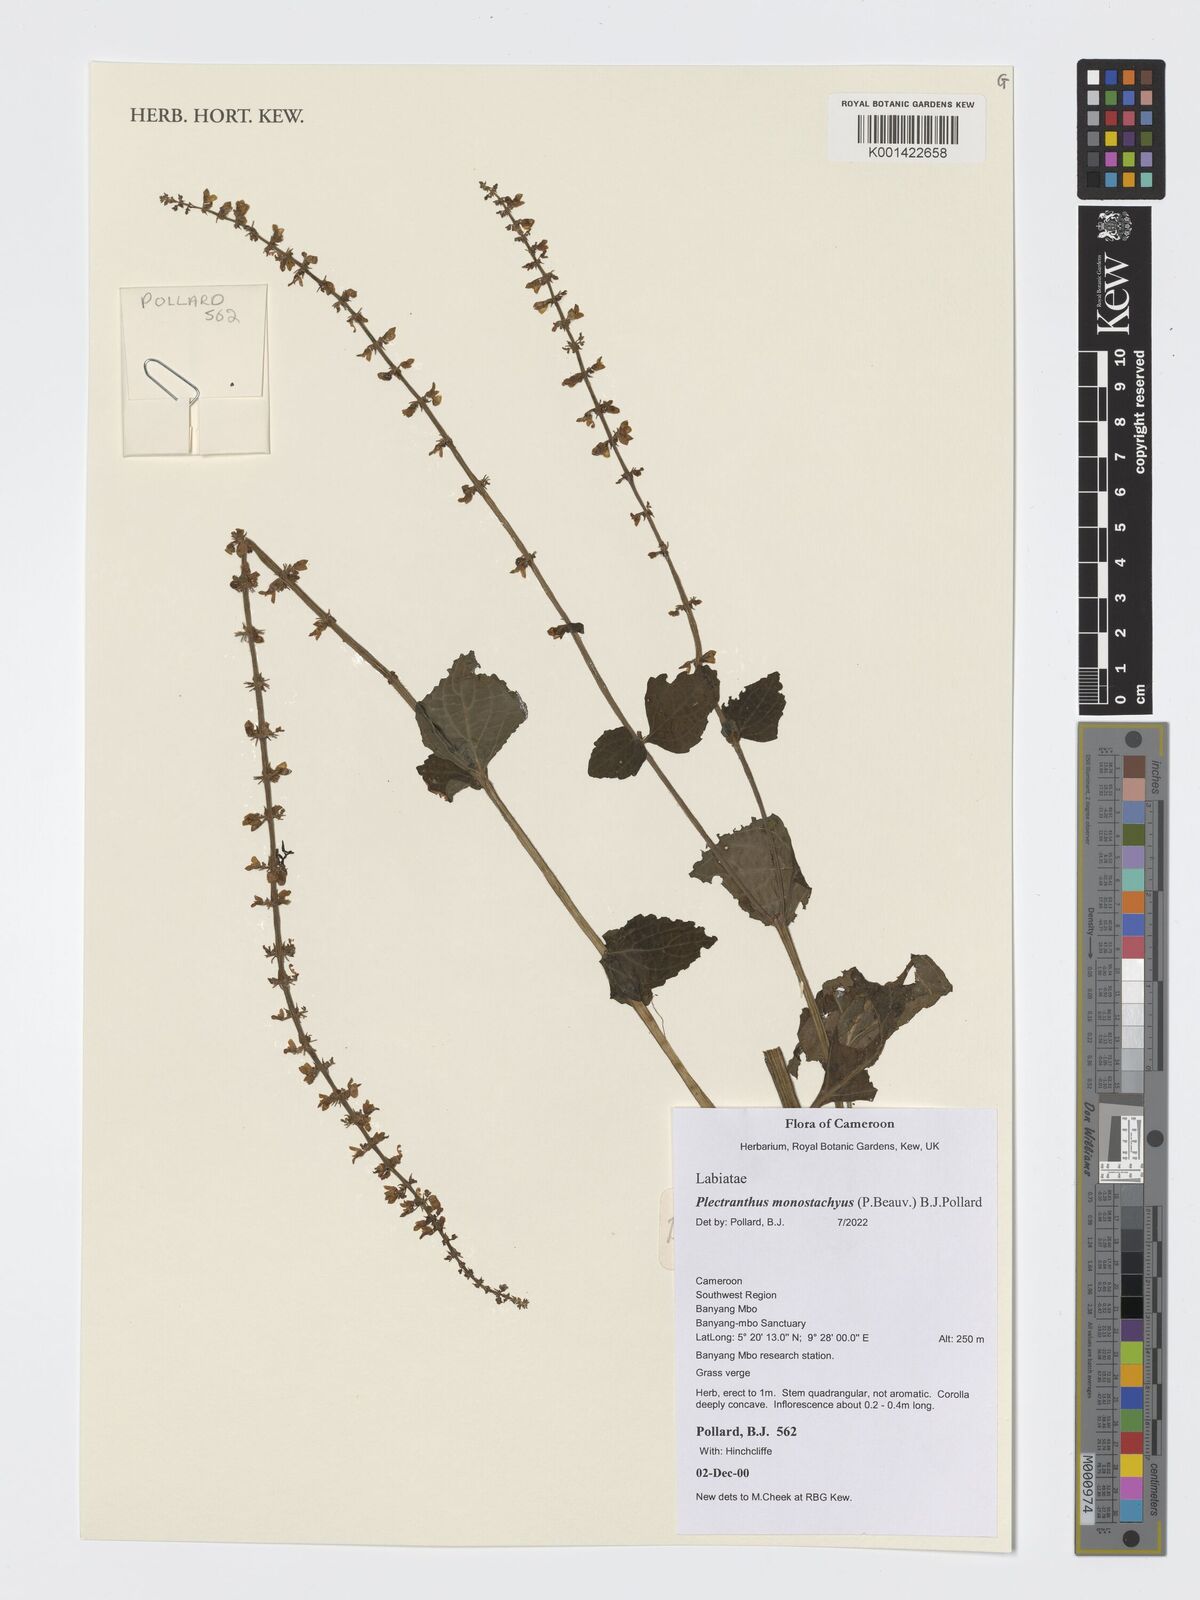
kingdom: Plantae
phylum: Tracheophyta
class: Magnoliopsida
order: Lamiales
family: Lamiaceae
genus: Coleus
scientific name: Coleus monostachyus
